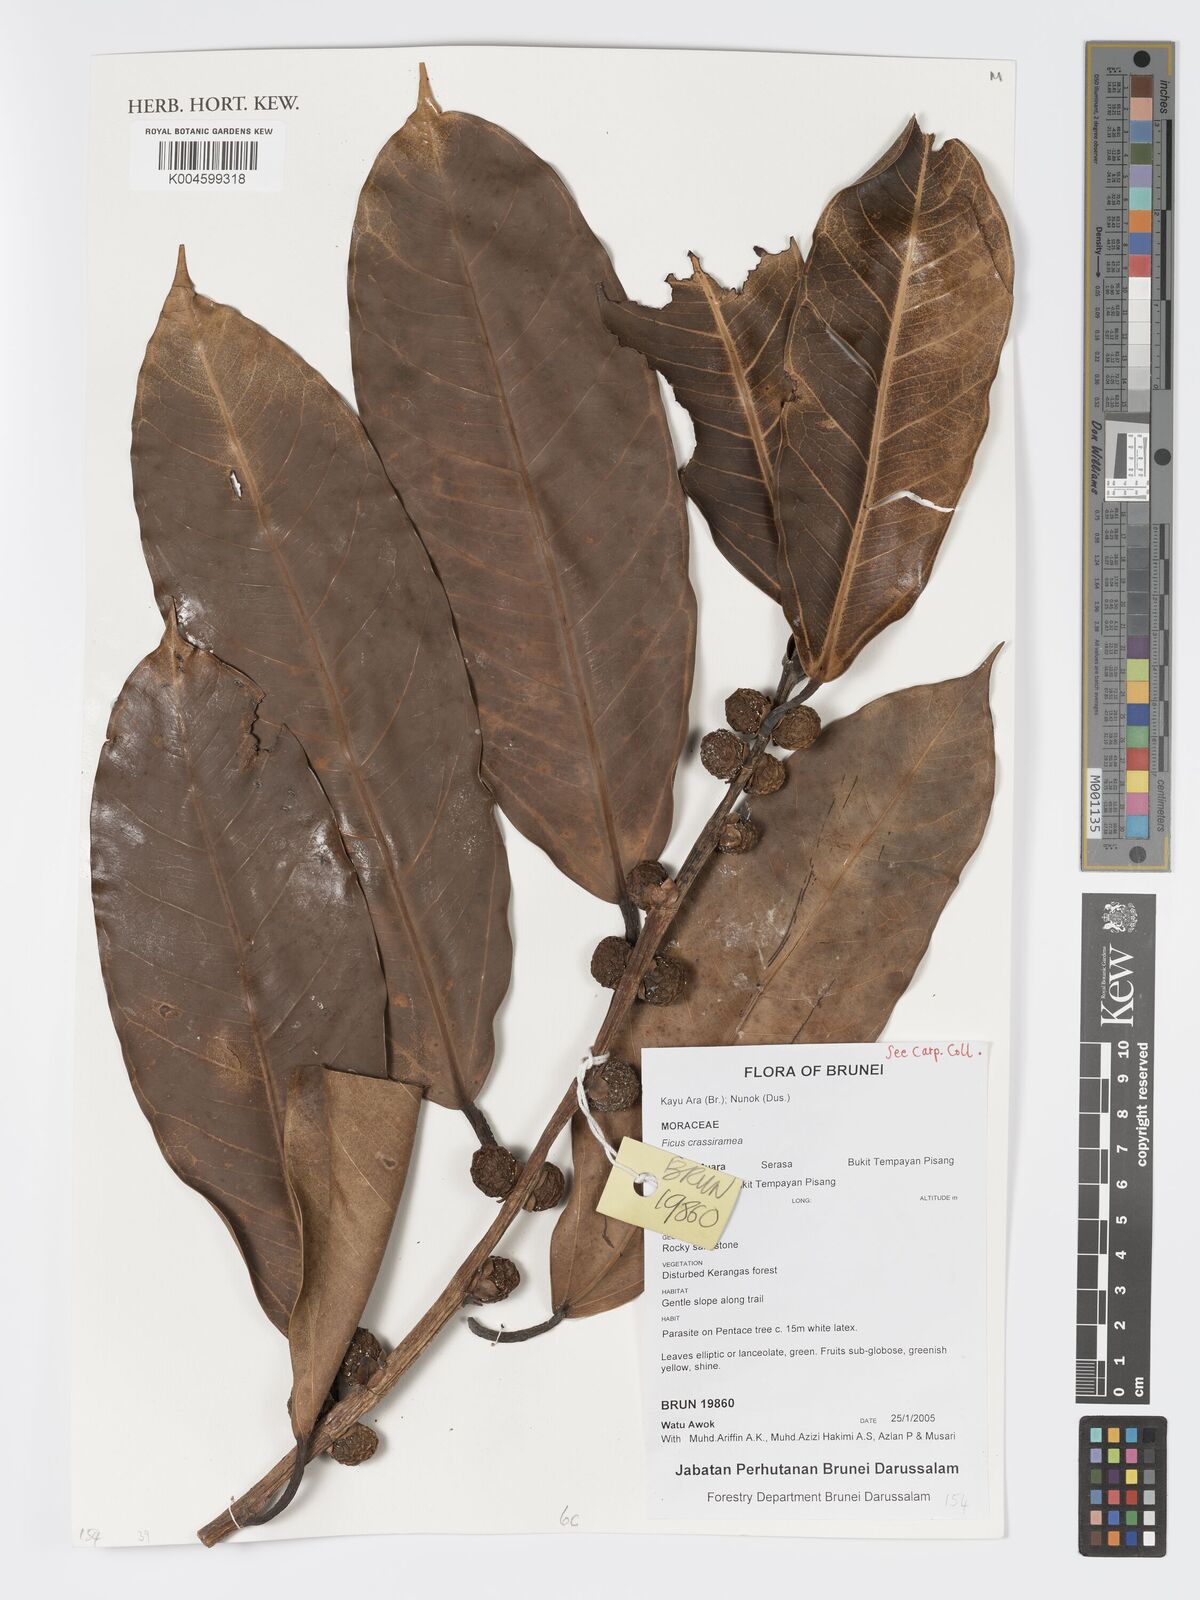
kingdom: Plantae
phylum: Tracheophyta
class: Magnoliopsida
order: Rosales
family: Moraceae
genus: Ficus
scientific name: Ficus crassiramea
